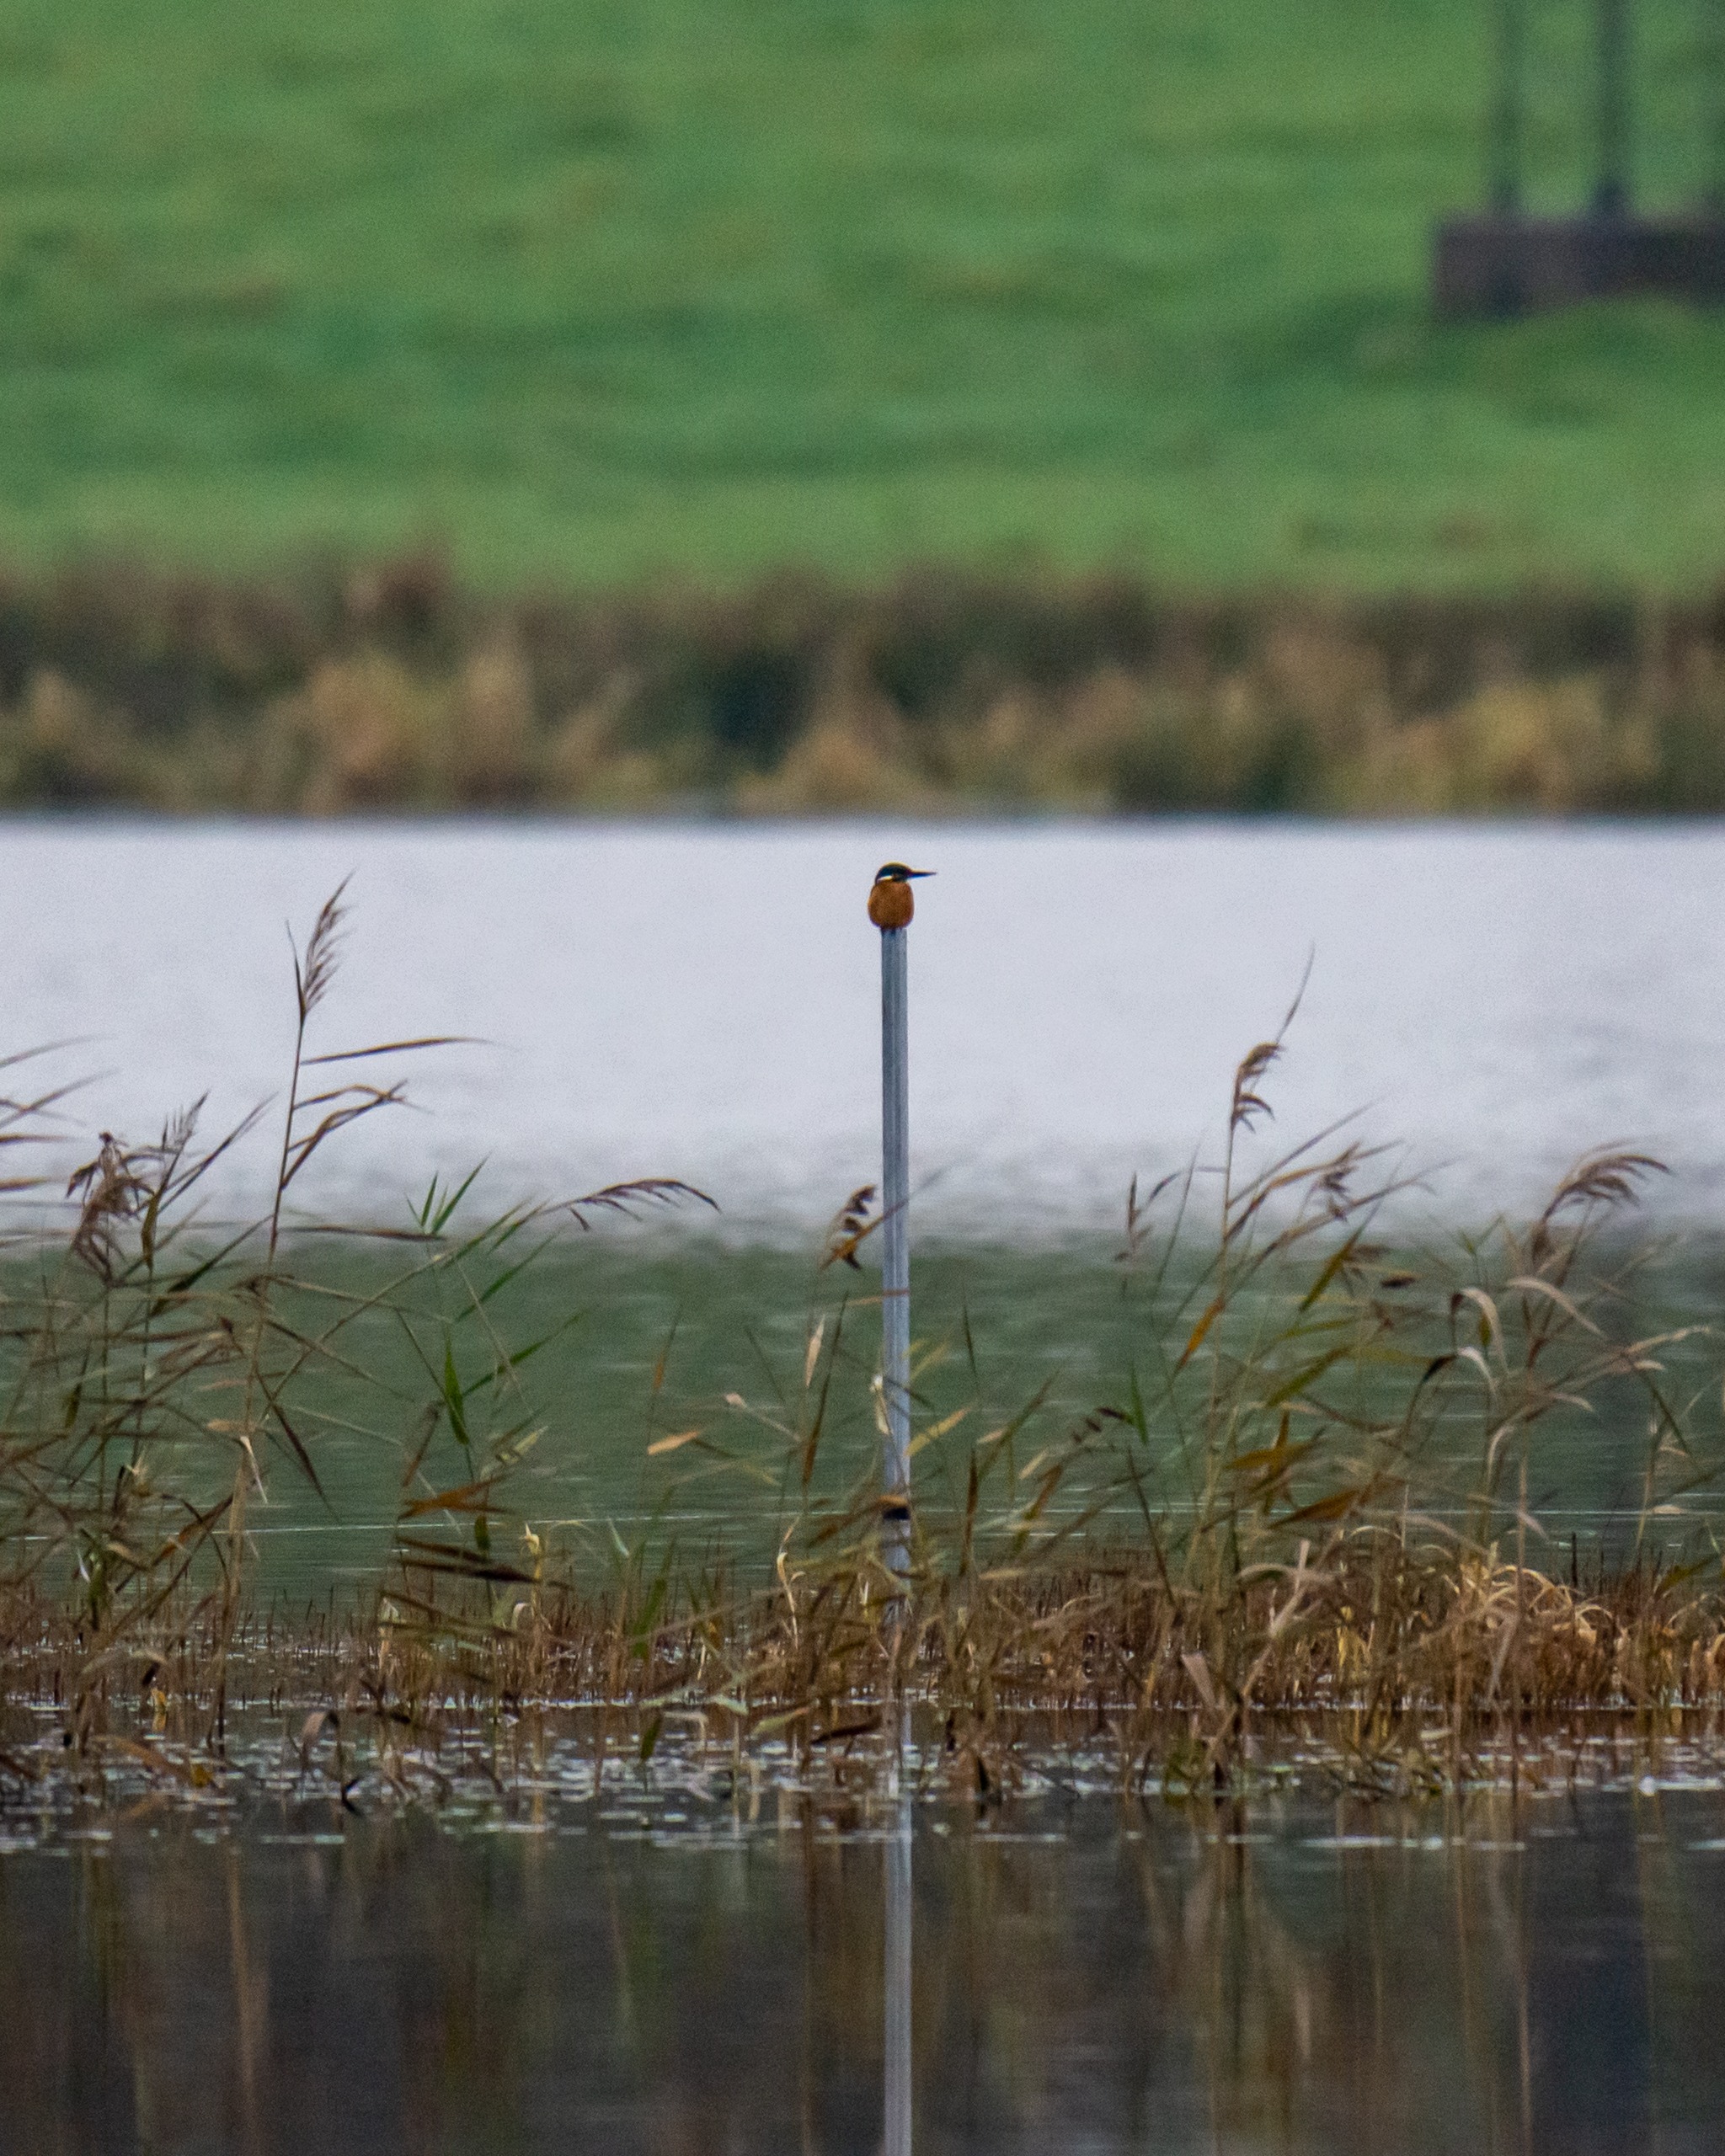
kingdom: Animalia
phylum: Chordata
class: Aves
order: Coraciiformes
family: Alcedinidae
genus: Alcedo
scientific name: Alcedo atthis
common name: Isfugl
